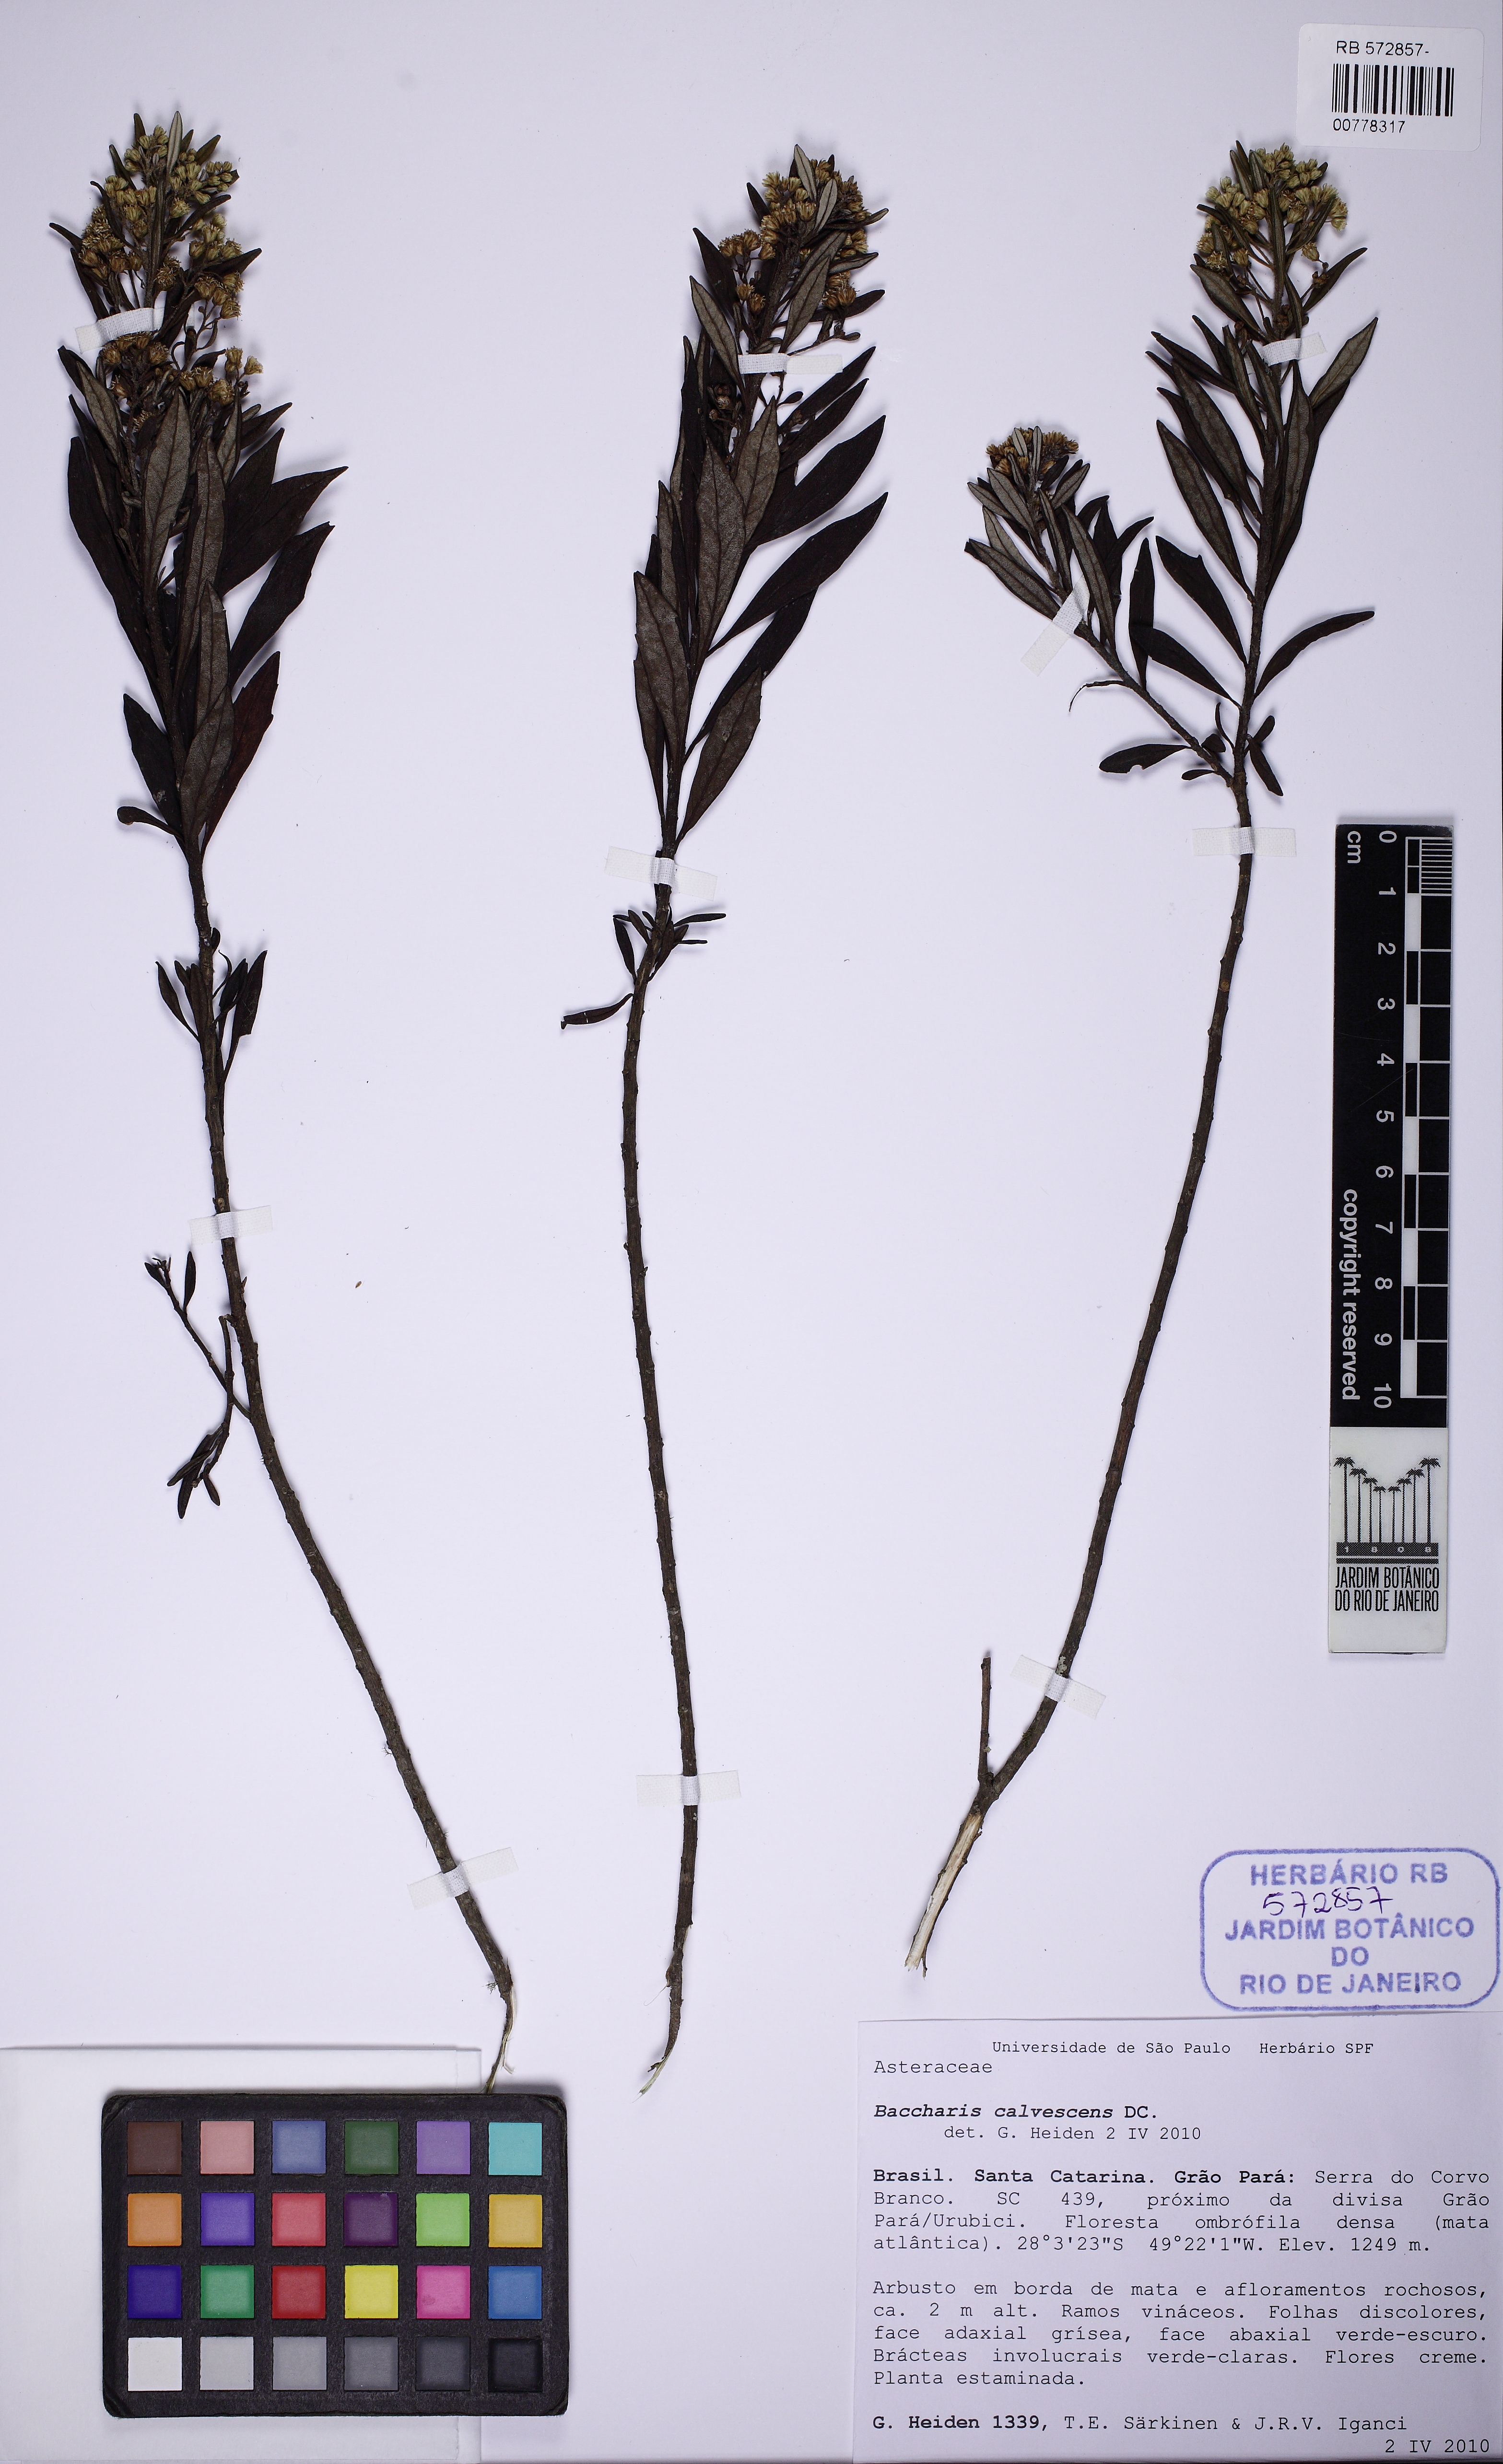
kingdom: Plantae
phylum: Tracheophyta
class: Magnoliopsida
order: Asterales
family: Asteraceae
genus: Baccharis
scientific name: Baccharis calvescens
